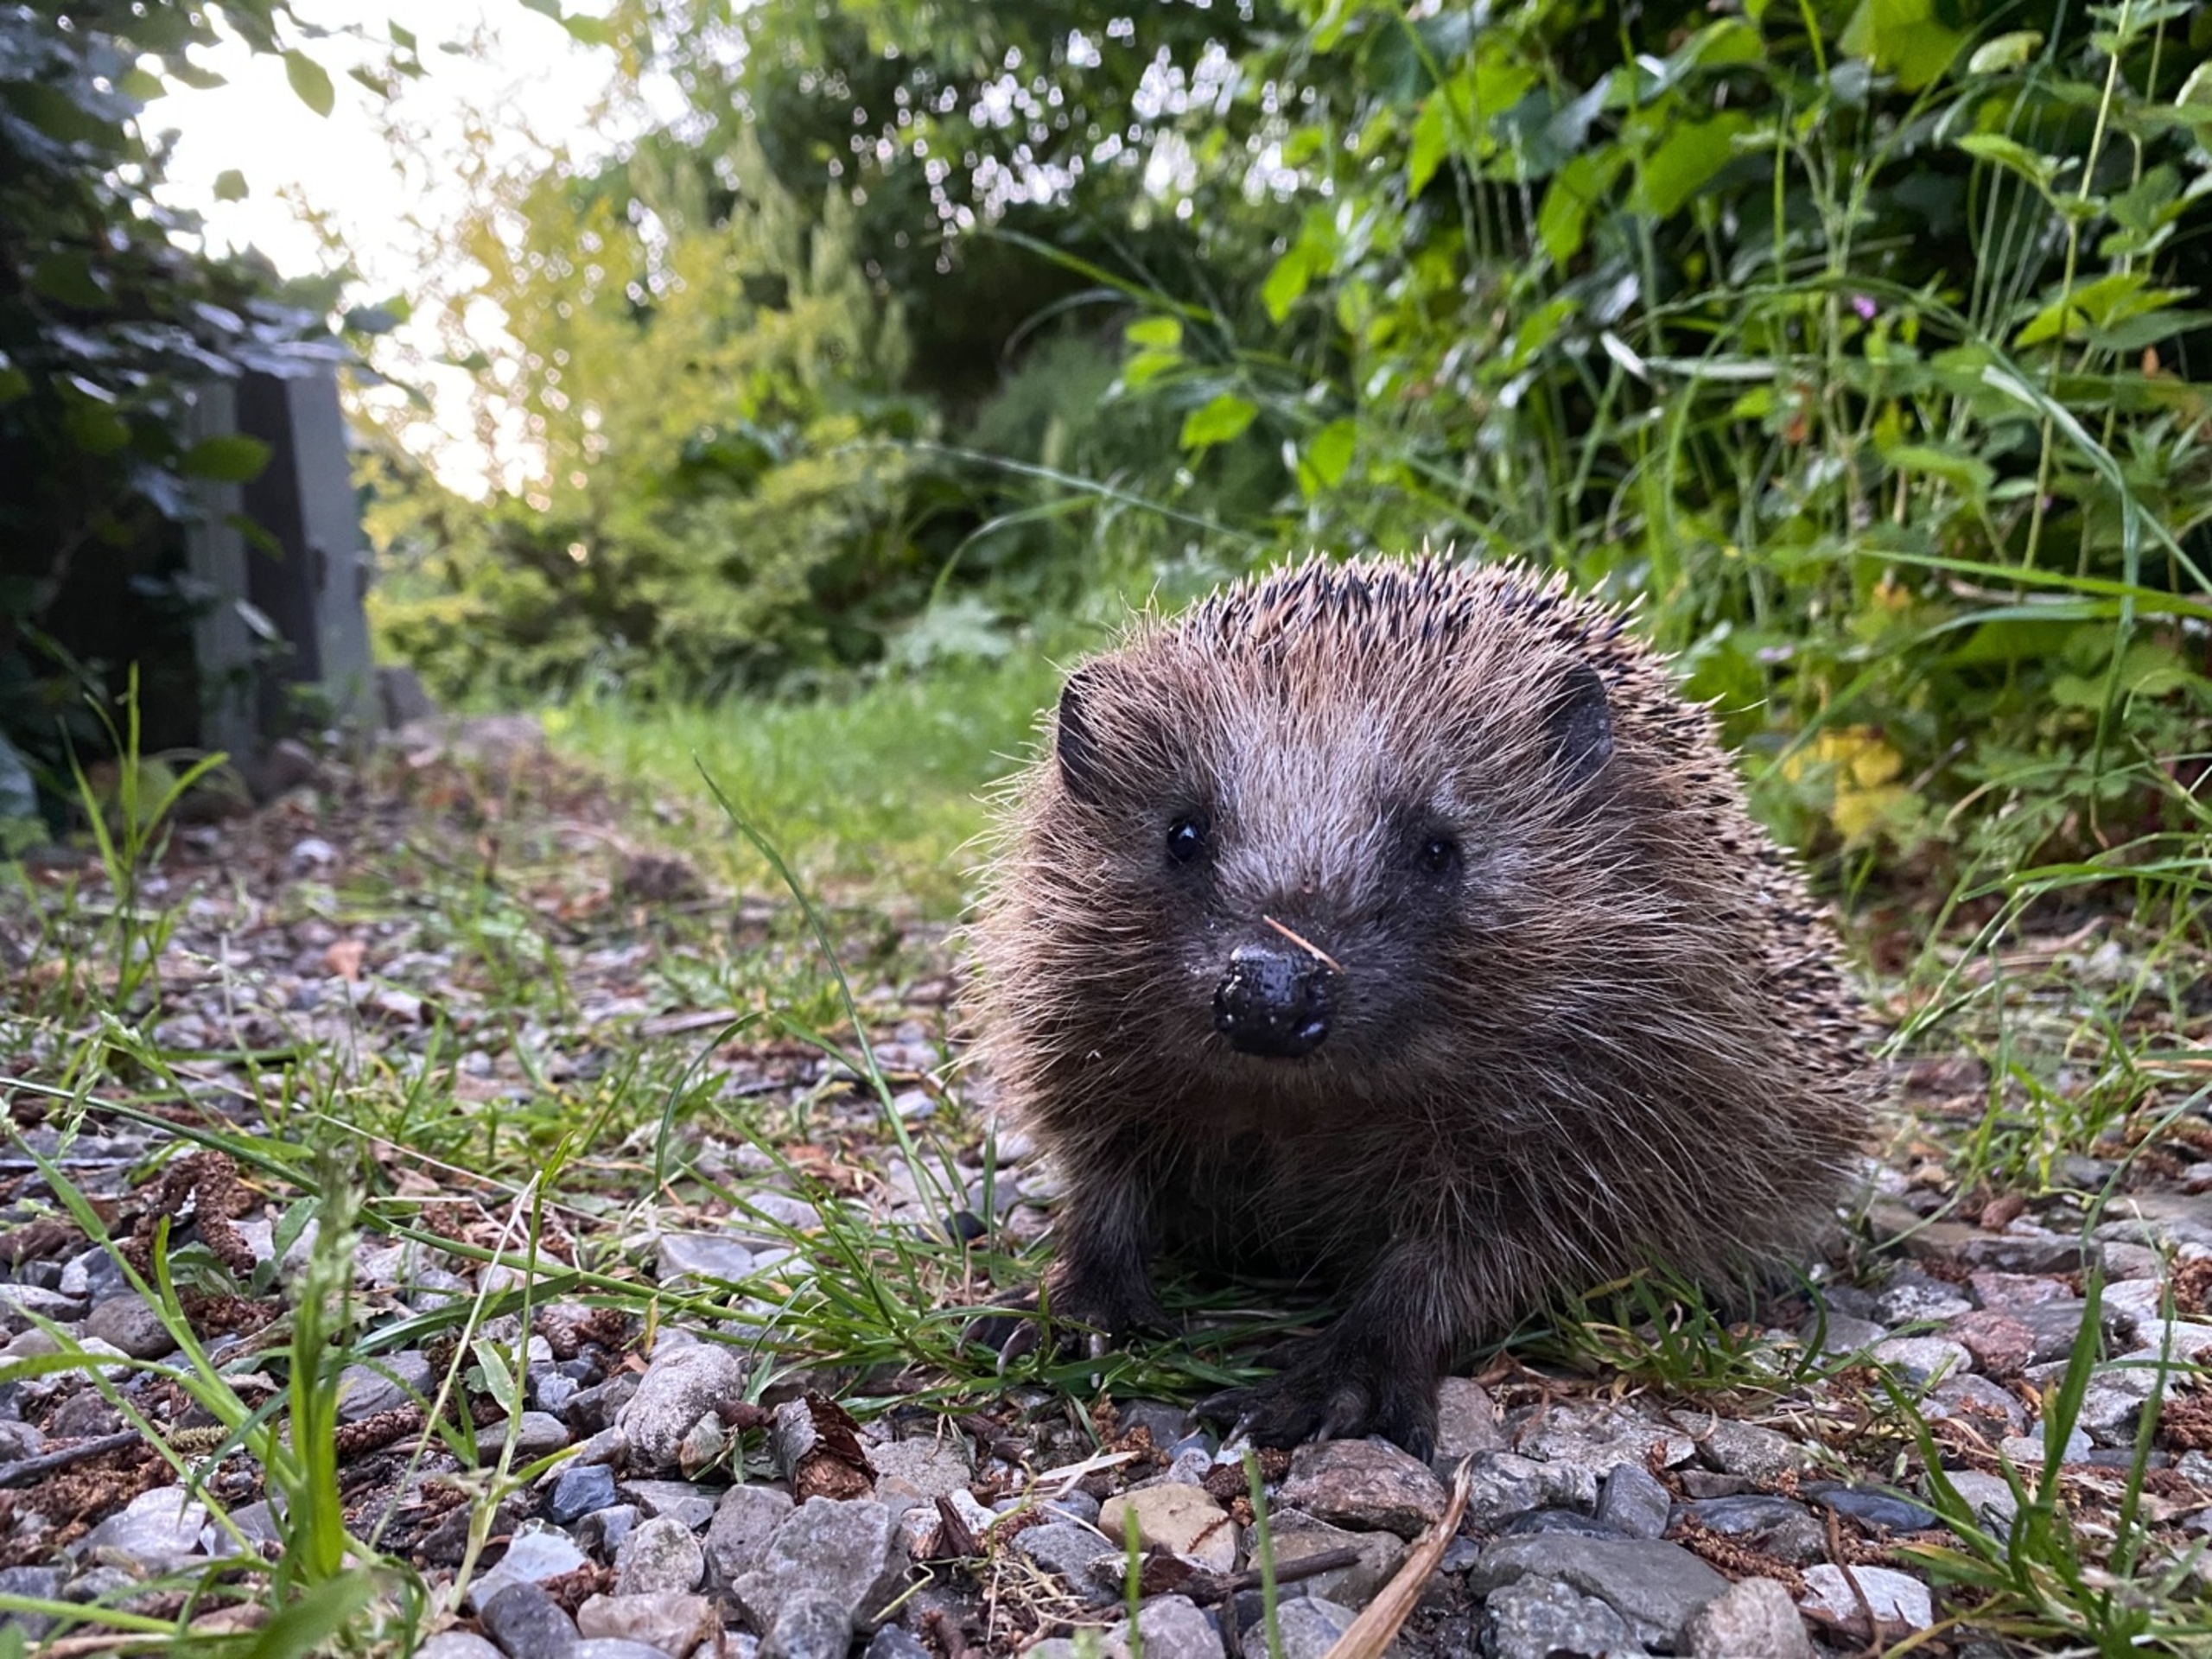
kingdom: Animalia
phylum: Chordata
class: Mammalia
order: Erinaceomorpha
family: Erinaceidae
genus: Erinaceus
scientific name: Erinaceus europaeus
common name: Pindsvin
